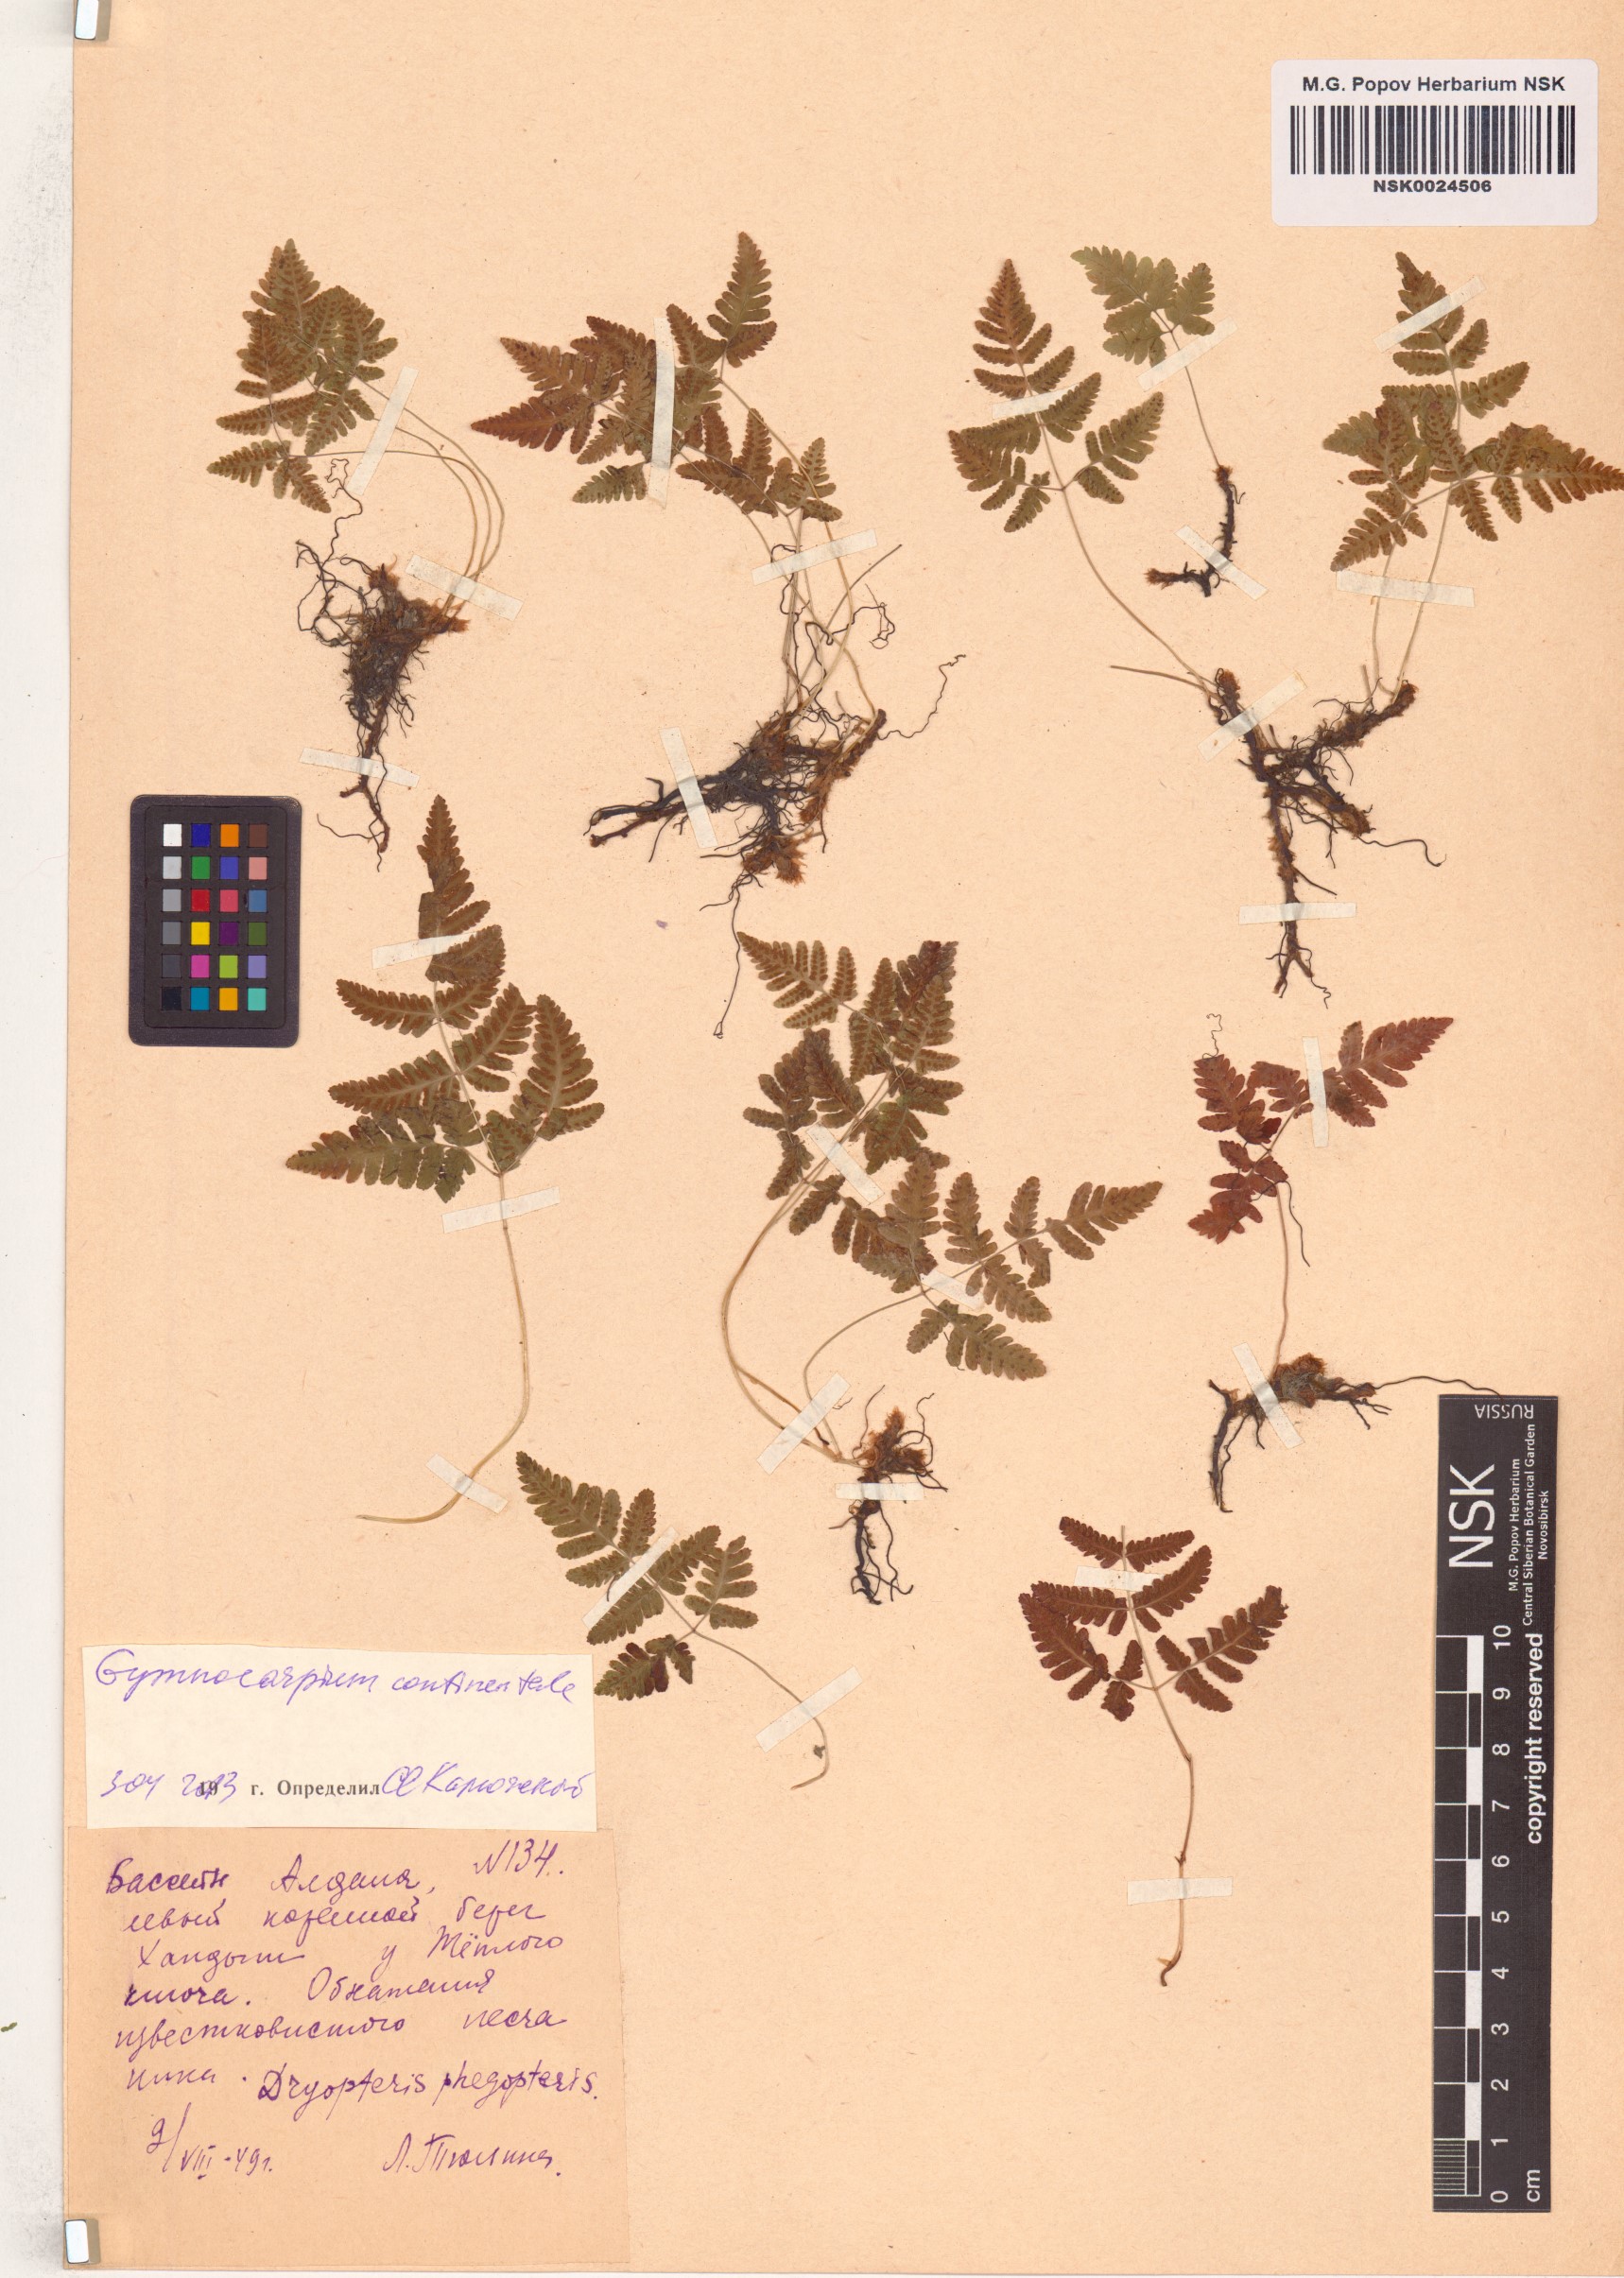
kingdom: Plantae
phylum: Tracheophyta
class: Polypodiopsida
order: Polypodiales
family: Cystopteridaceae
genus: Gymnocarpium
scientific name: Gymnocarpium continentale
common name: Asian oak fern
